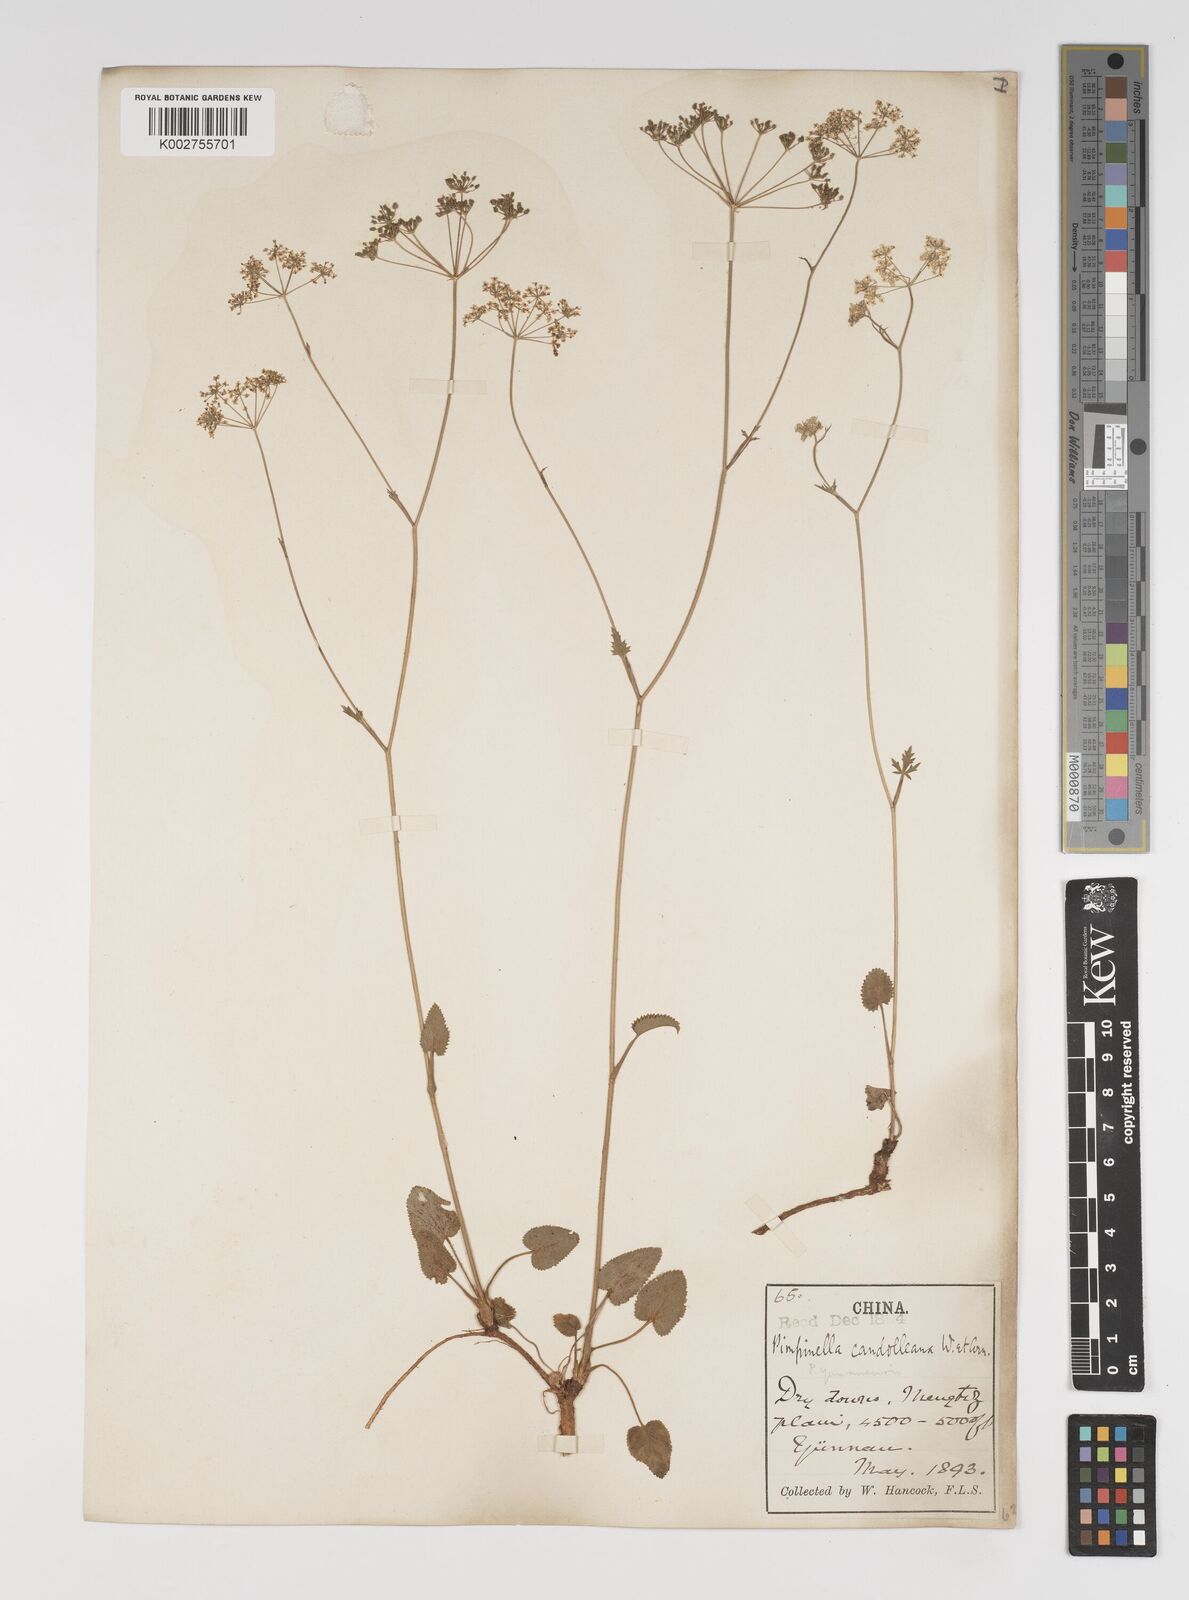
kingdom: Plantae
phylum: Tracheophyta
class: Magnoliopsida
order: Apiales
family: Apiaceae
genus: Pimpinella
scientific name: Pimpinella candolleana
